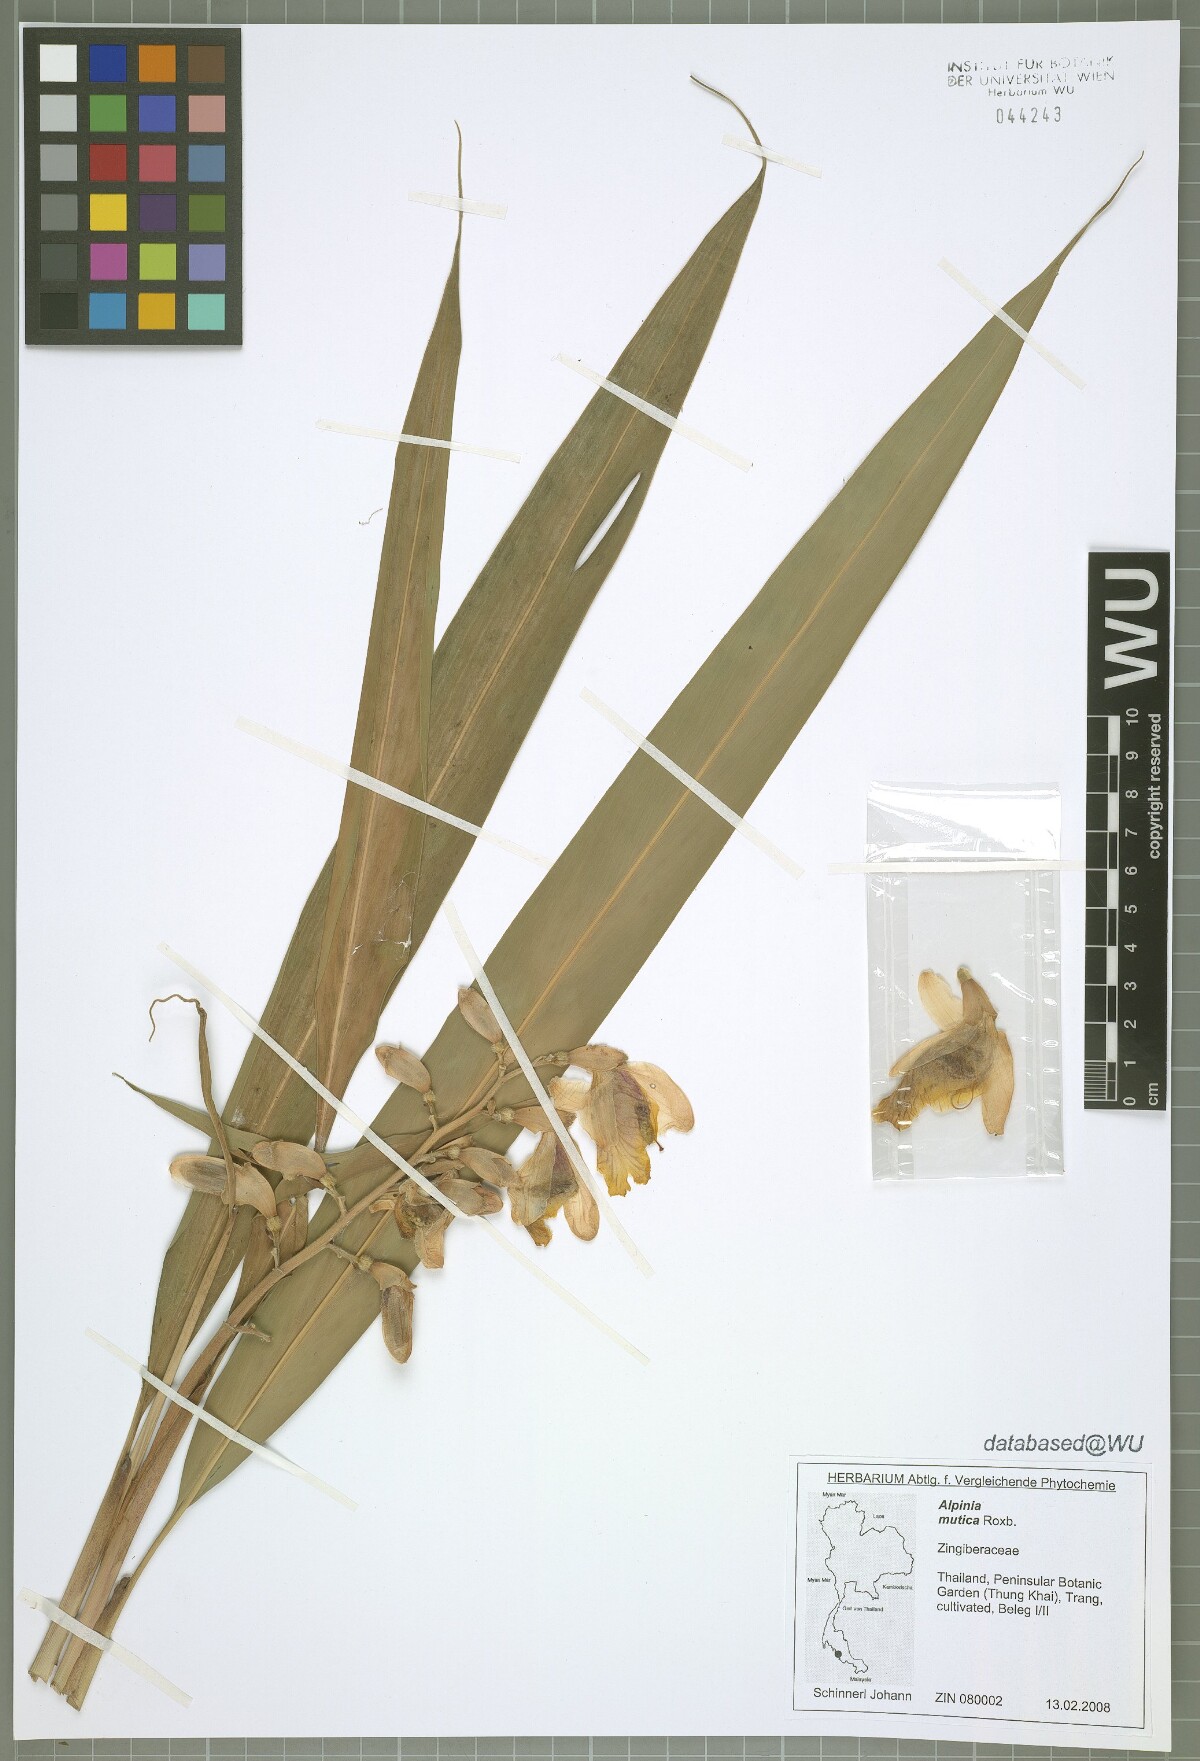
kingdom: Plantae
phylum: Tracheophyta
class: Liliopsida
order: Zingiberales
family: Zingiberaceae
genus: Alpinia
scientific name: Alpinia mutica
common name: Small shell ginger
